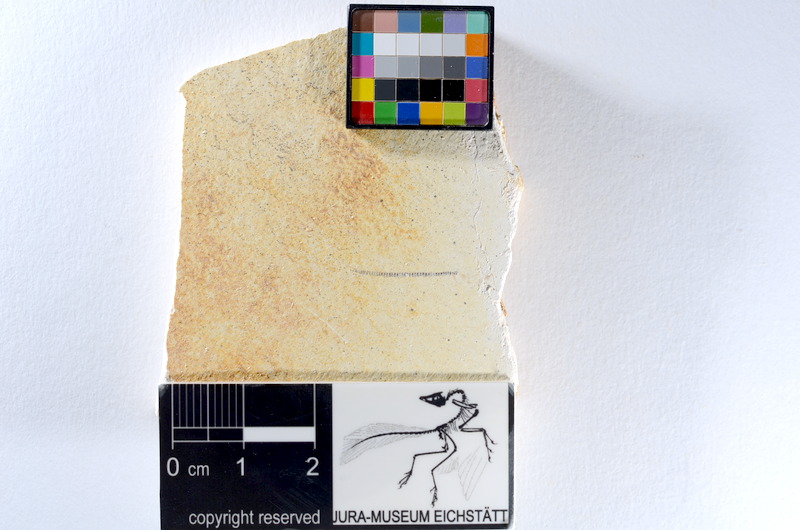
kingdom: Animalia
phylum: Chordata
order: Salmoniformes
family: Orthogonikleithridae
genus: Orthogonikleithrus
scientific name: Orthogonikleithrus hoelli
